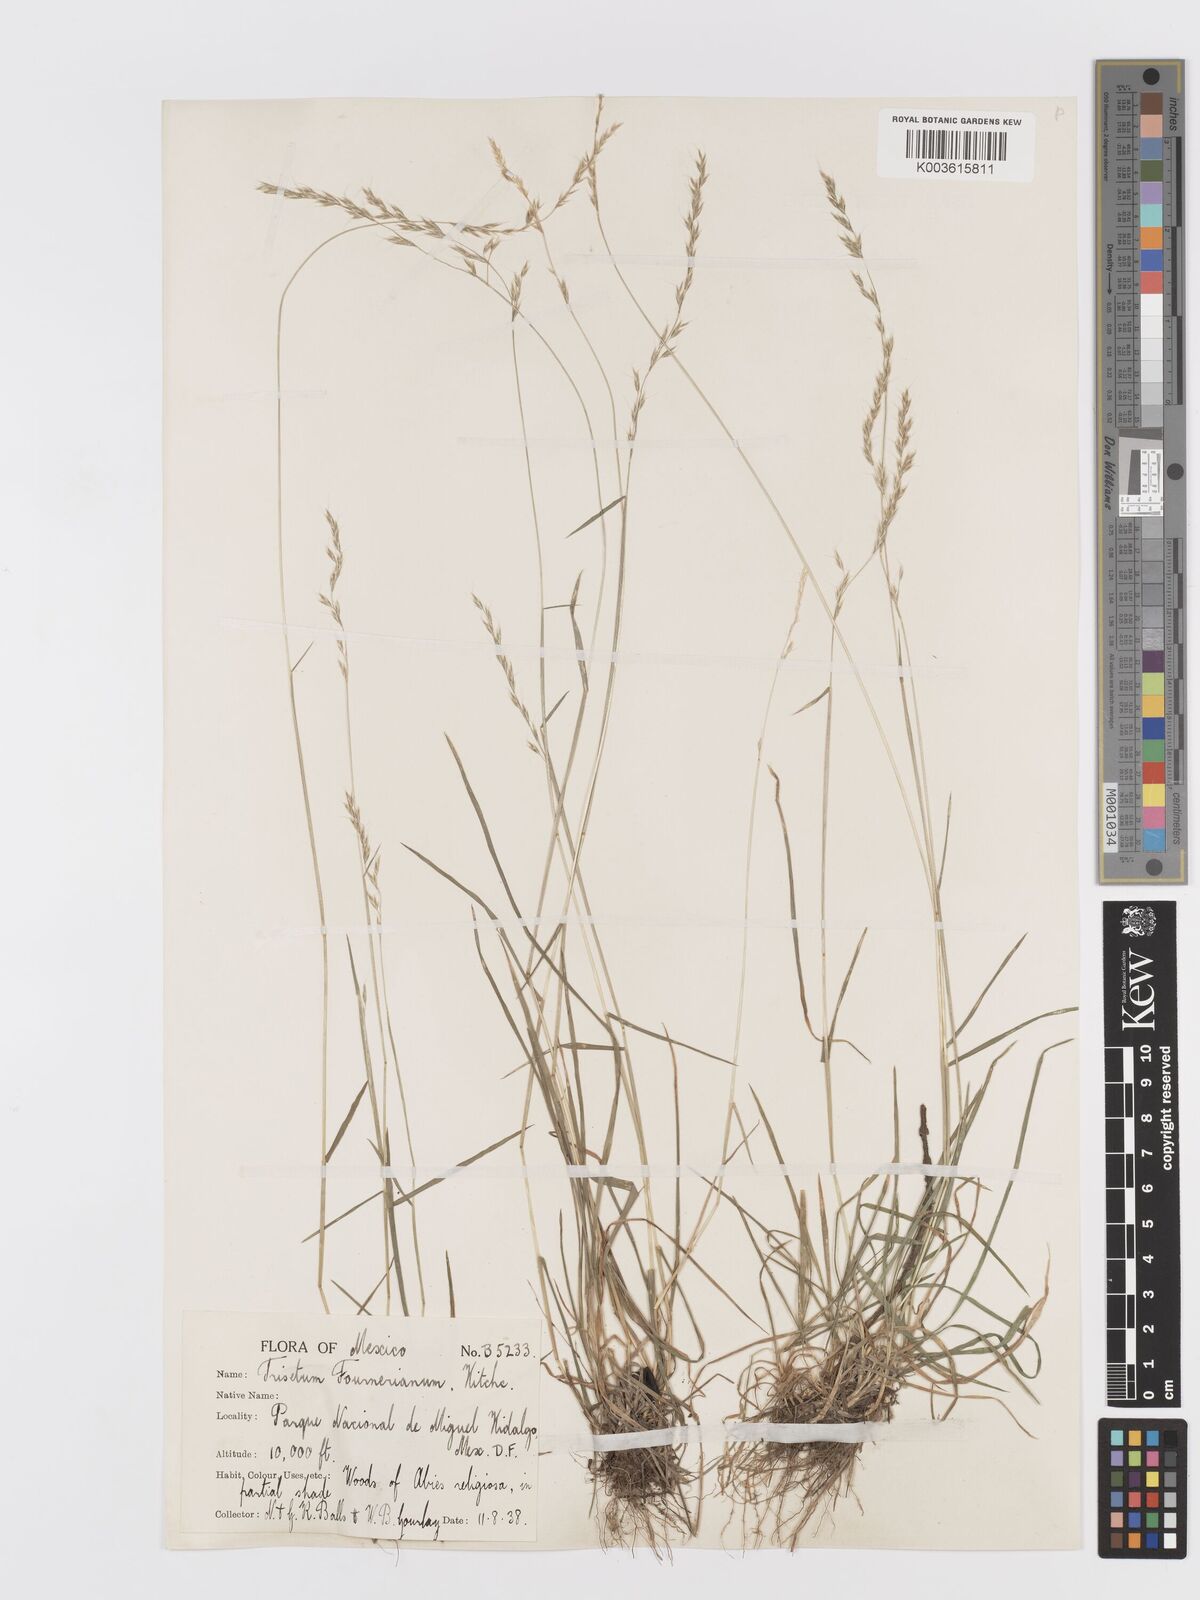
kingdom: Plantae
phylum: Tracheophyta
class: Liliopsida
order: Poales
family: Poaceae
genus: Peyritschia
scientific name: Peyritschia irazuensis
